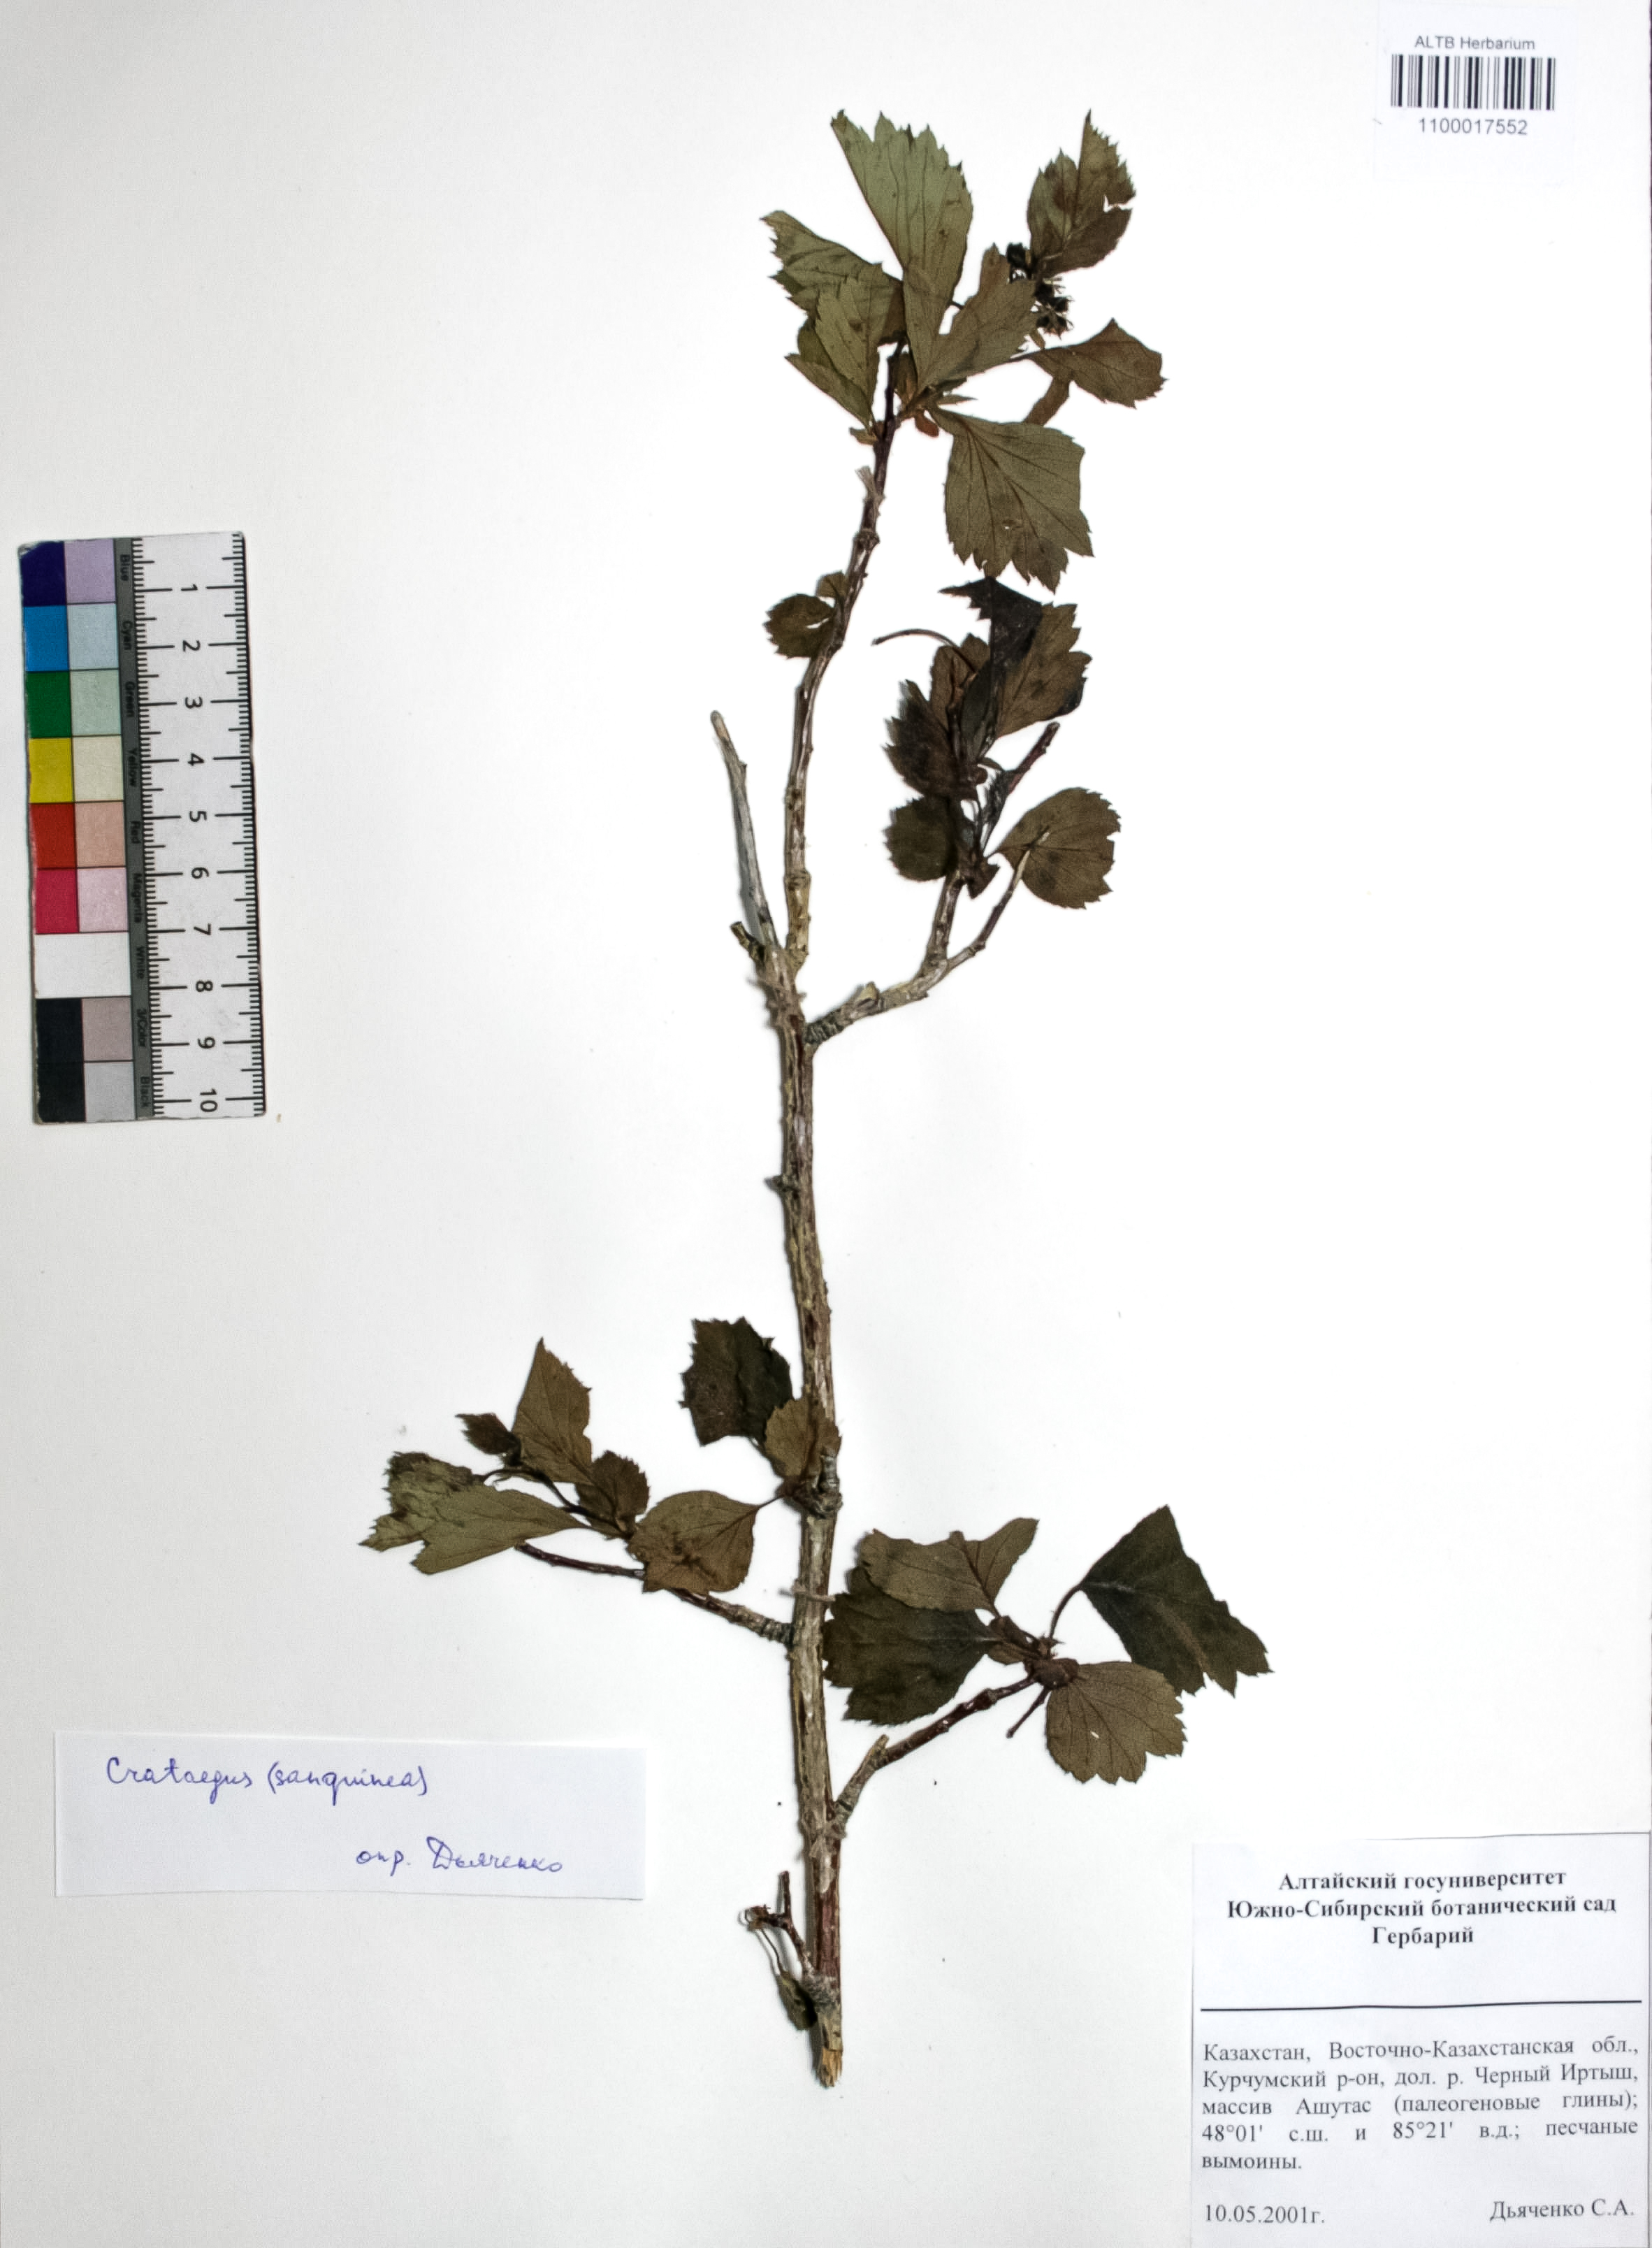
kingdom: Plantae
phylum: Tracheophyta
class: Magnoliopsida
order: Rosales
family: Rosaceae
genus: Crataegus
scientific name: Crataegus sanguinea
